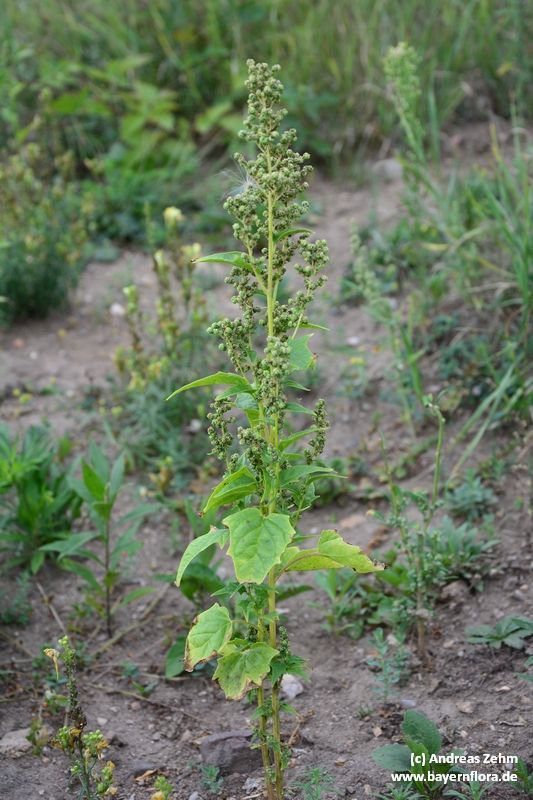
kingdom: Plantae
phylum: Tracheophyta
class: Magnoliopsida
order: Caryophyllales
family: Amaranthaceae
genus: Chenopodiastrum
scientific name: Chenopodiastrum hybridum
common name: Mapleleaf goosefoot
